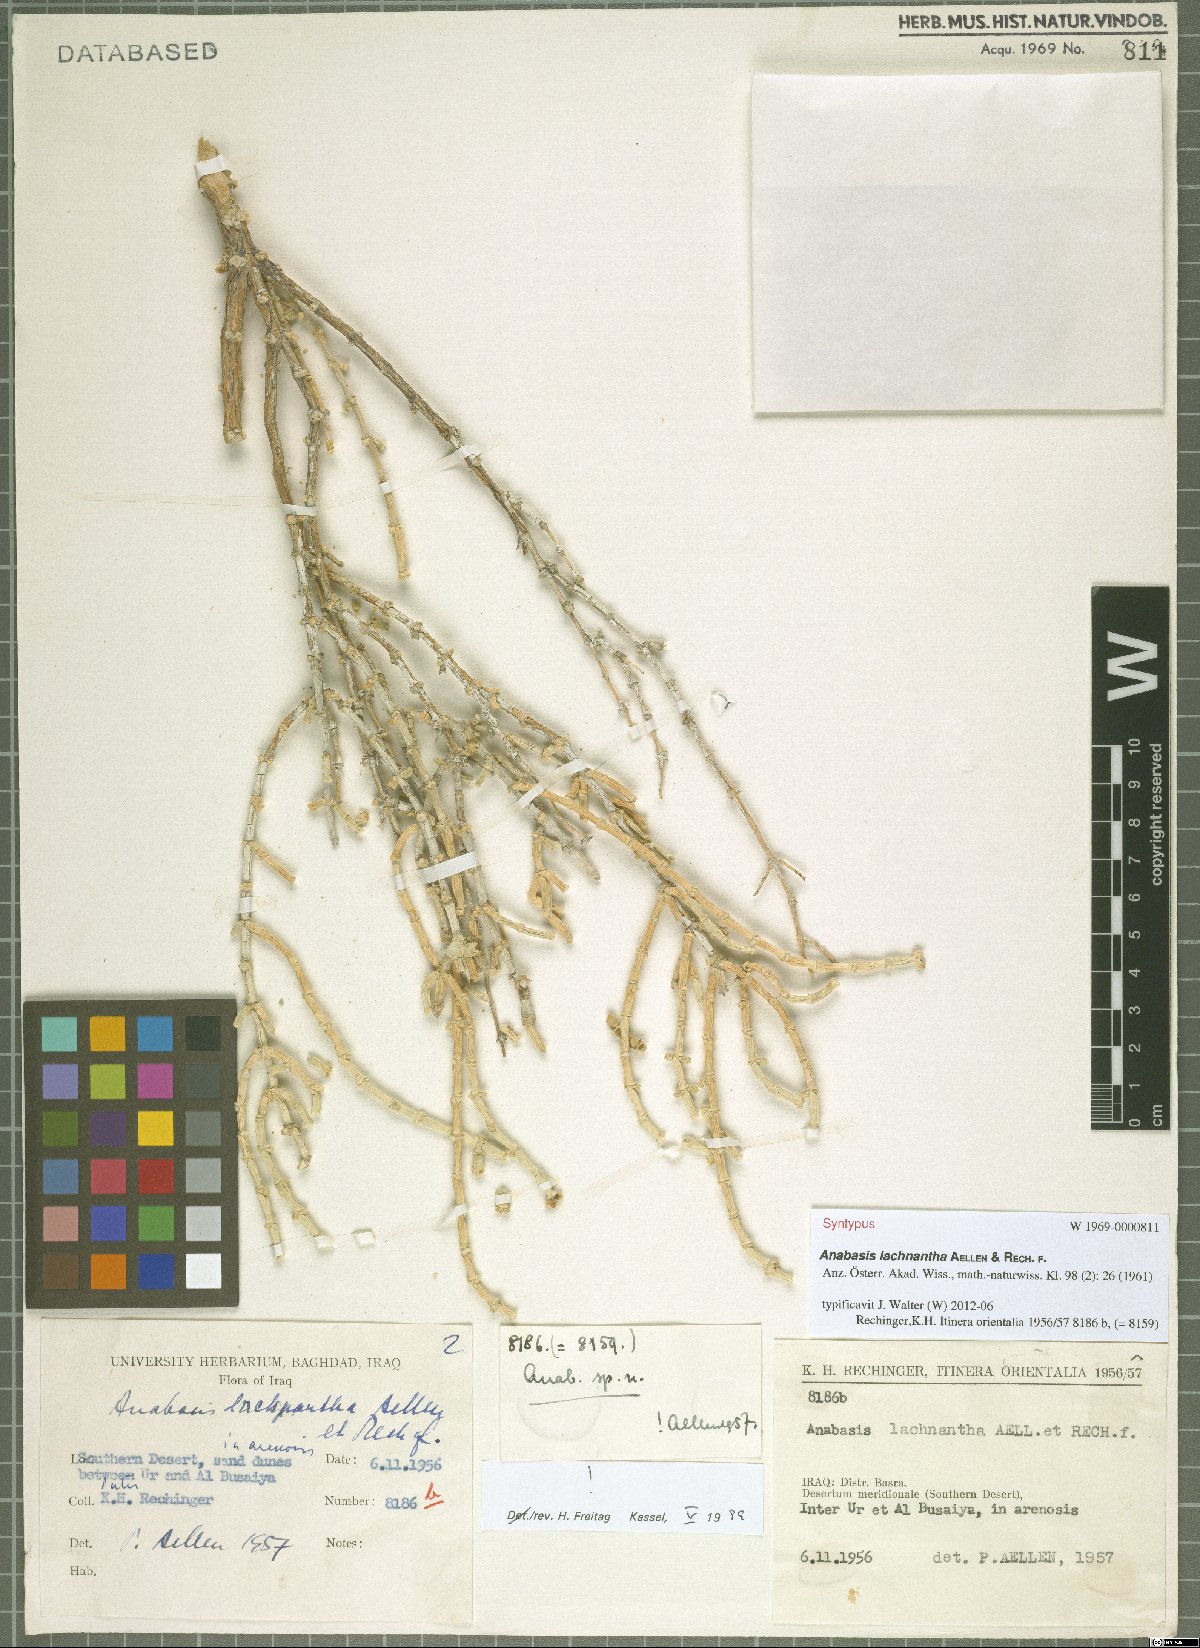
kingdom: Plantae
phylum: Tracheophyta
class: Magnoliopsida
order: Caryophyllales
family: Amaranthaceae
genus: Anabasis
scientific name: Anabasis lachnantha
